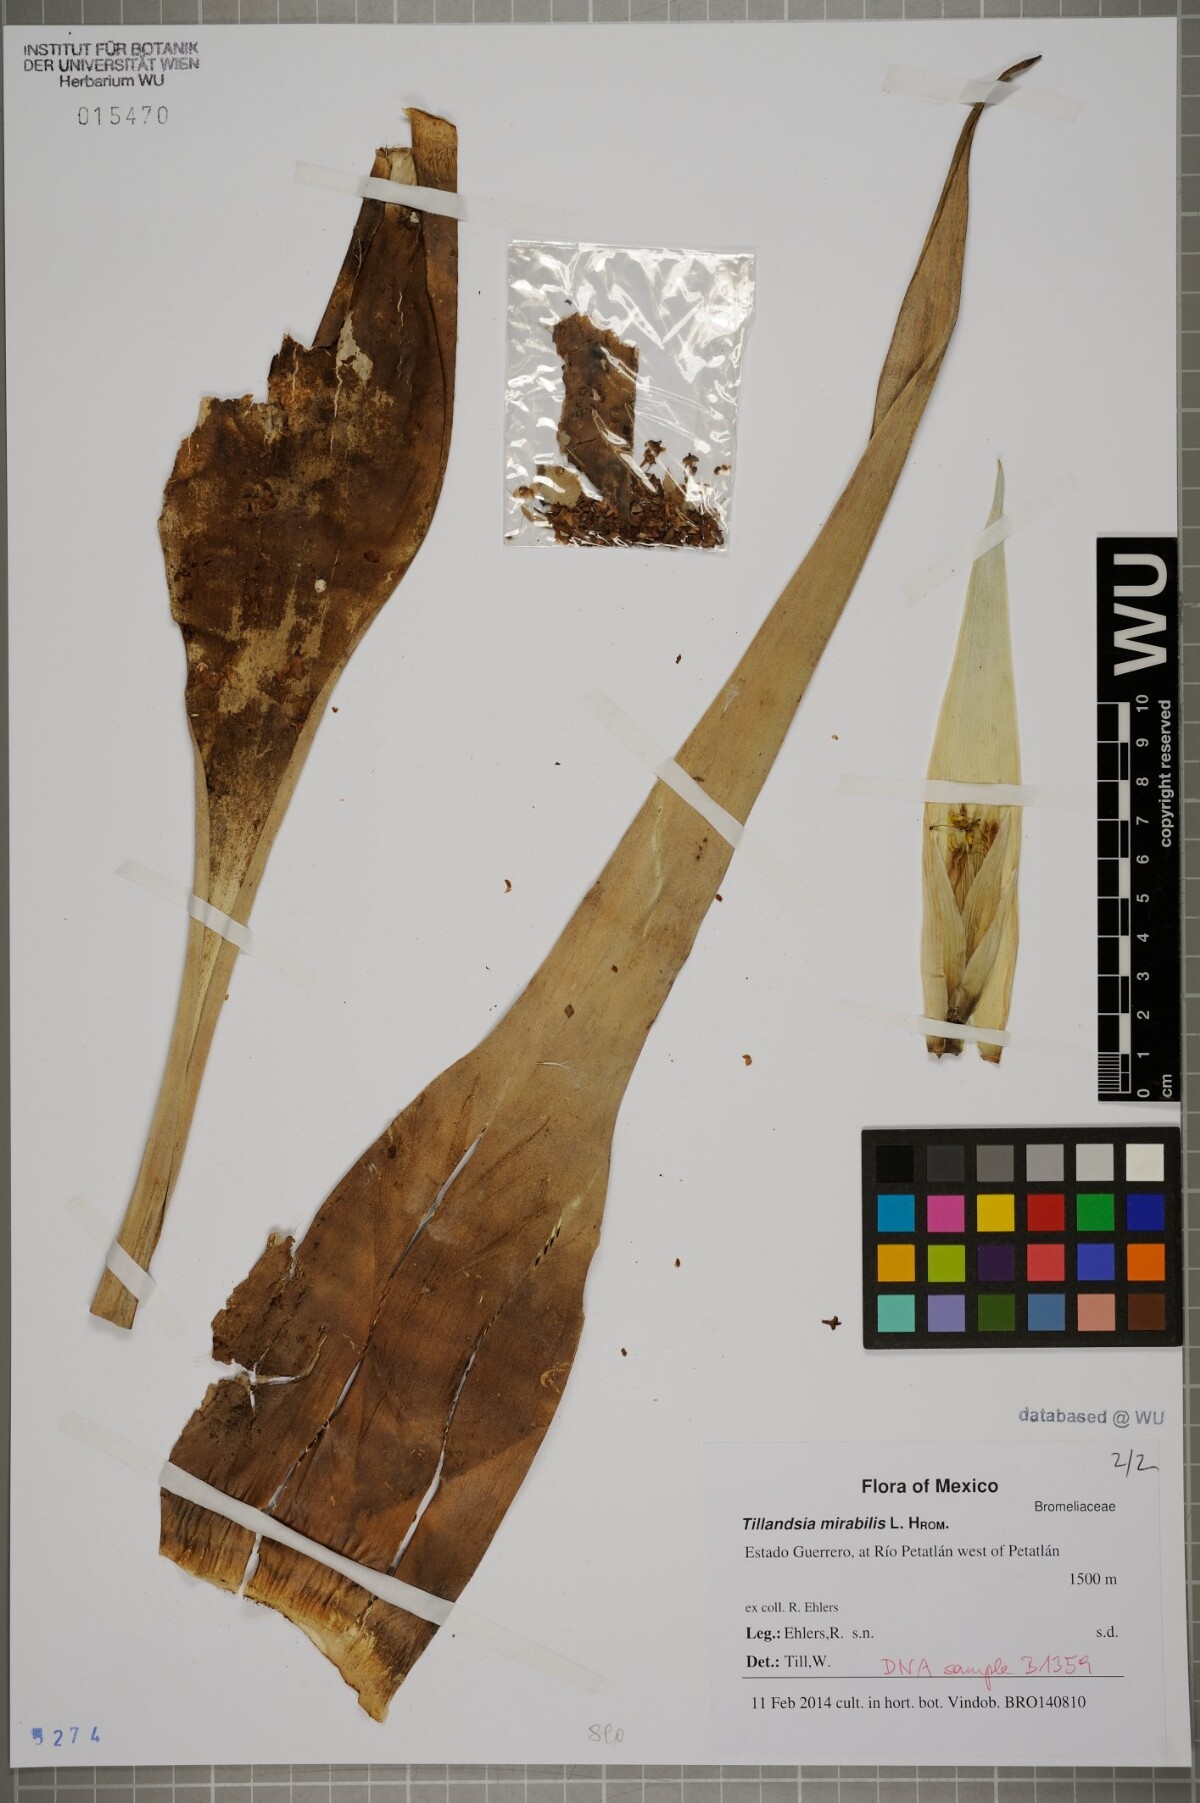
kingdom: Plantae
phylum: Tracheophyta
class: Liliopsida
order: Poales
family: Bromeliaceae
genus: Tillandsia
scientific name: Tillandsia mirabilis
